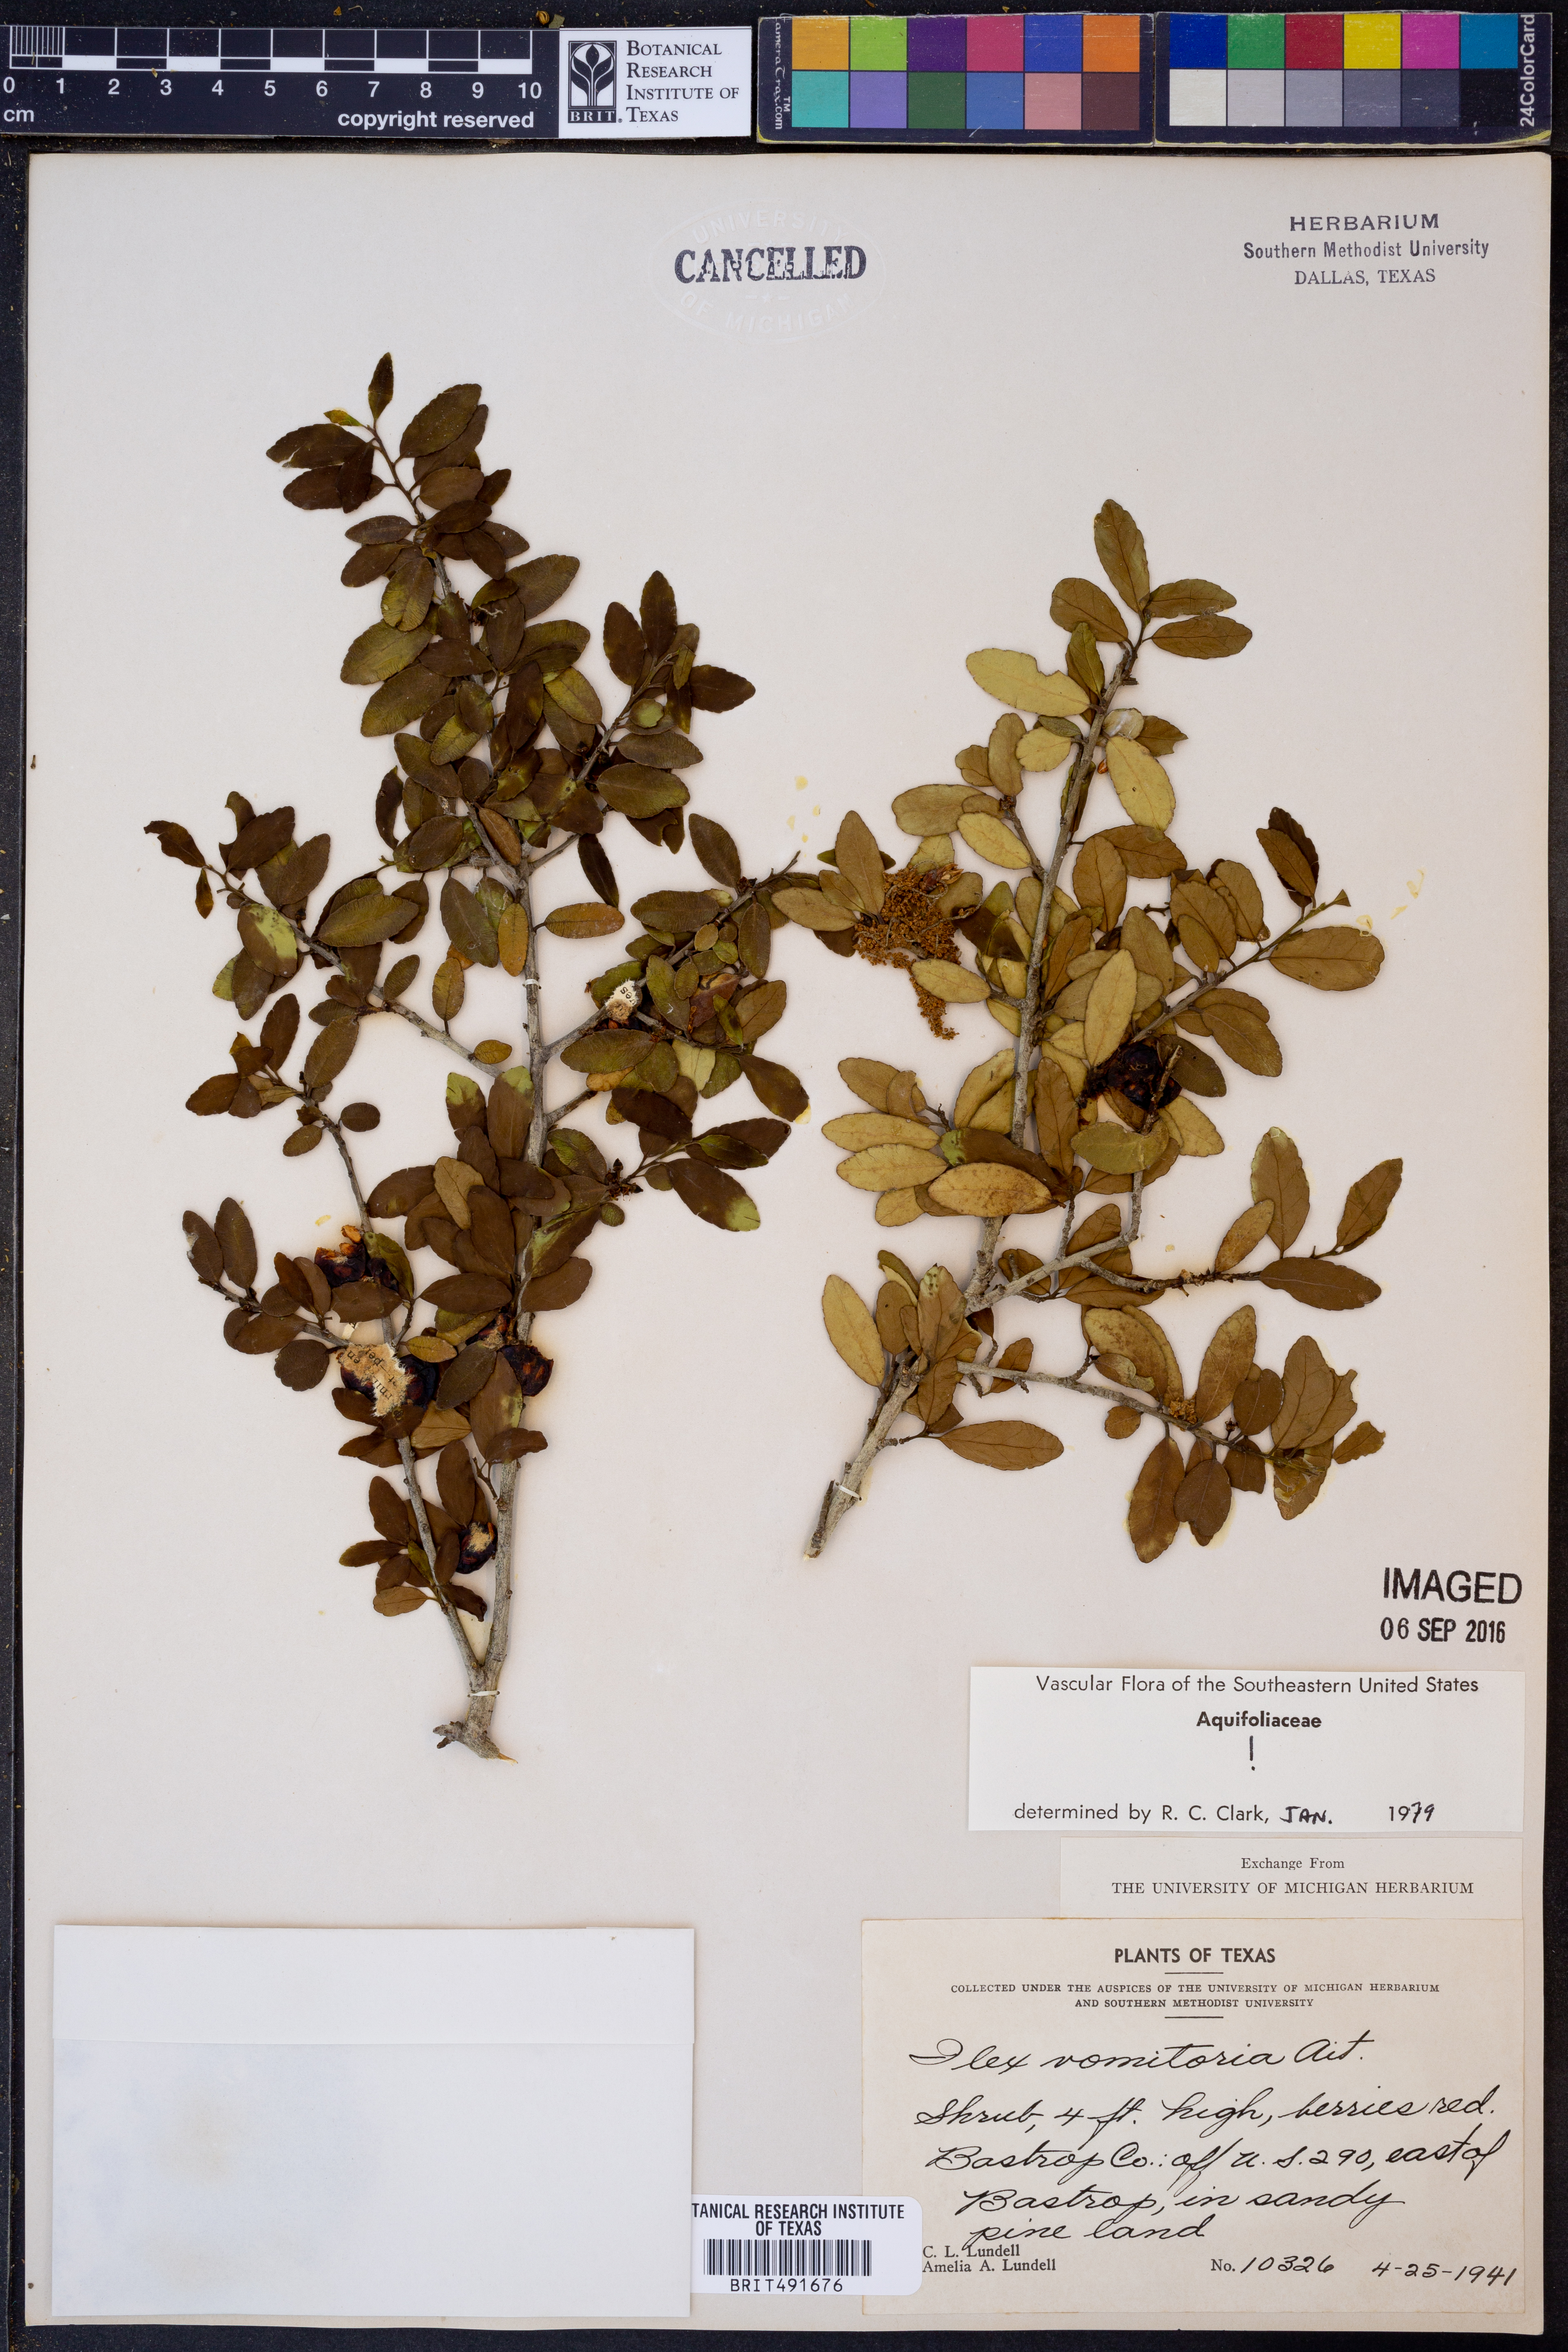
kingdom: Plantae
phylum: Tracheophyta
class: Magnoliopsida
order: Aquifoliales
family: Aquifoliaceae
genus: Ilex
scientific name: Ilex vomitoria
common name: Yaupon holly
